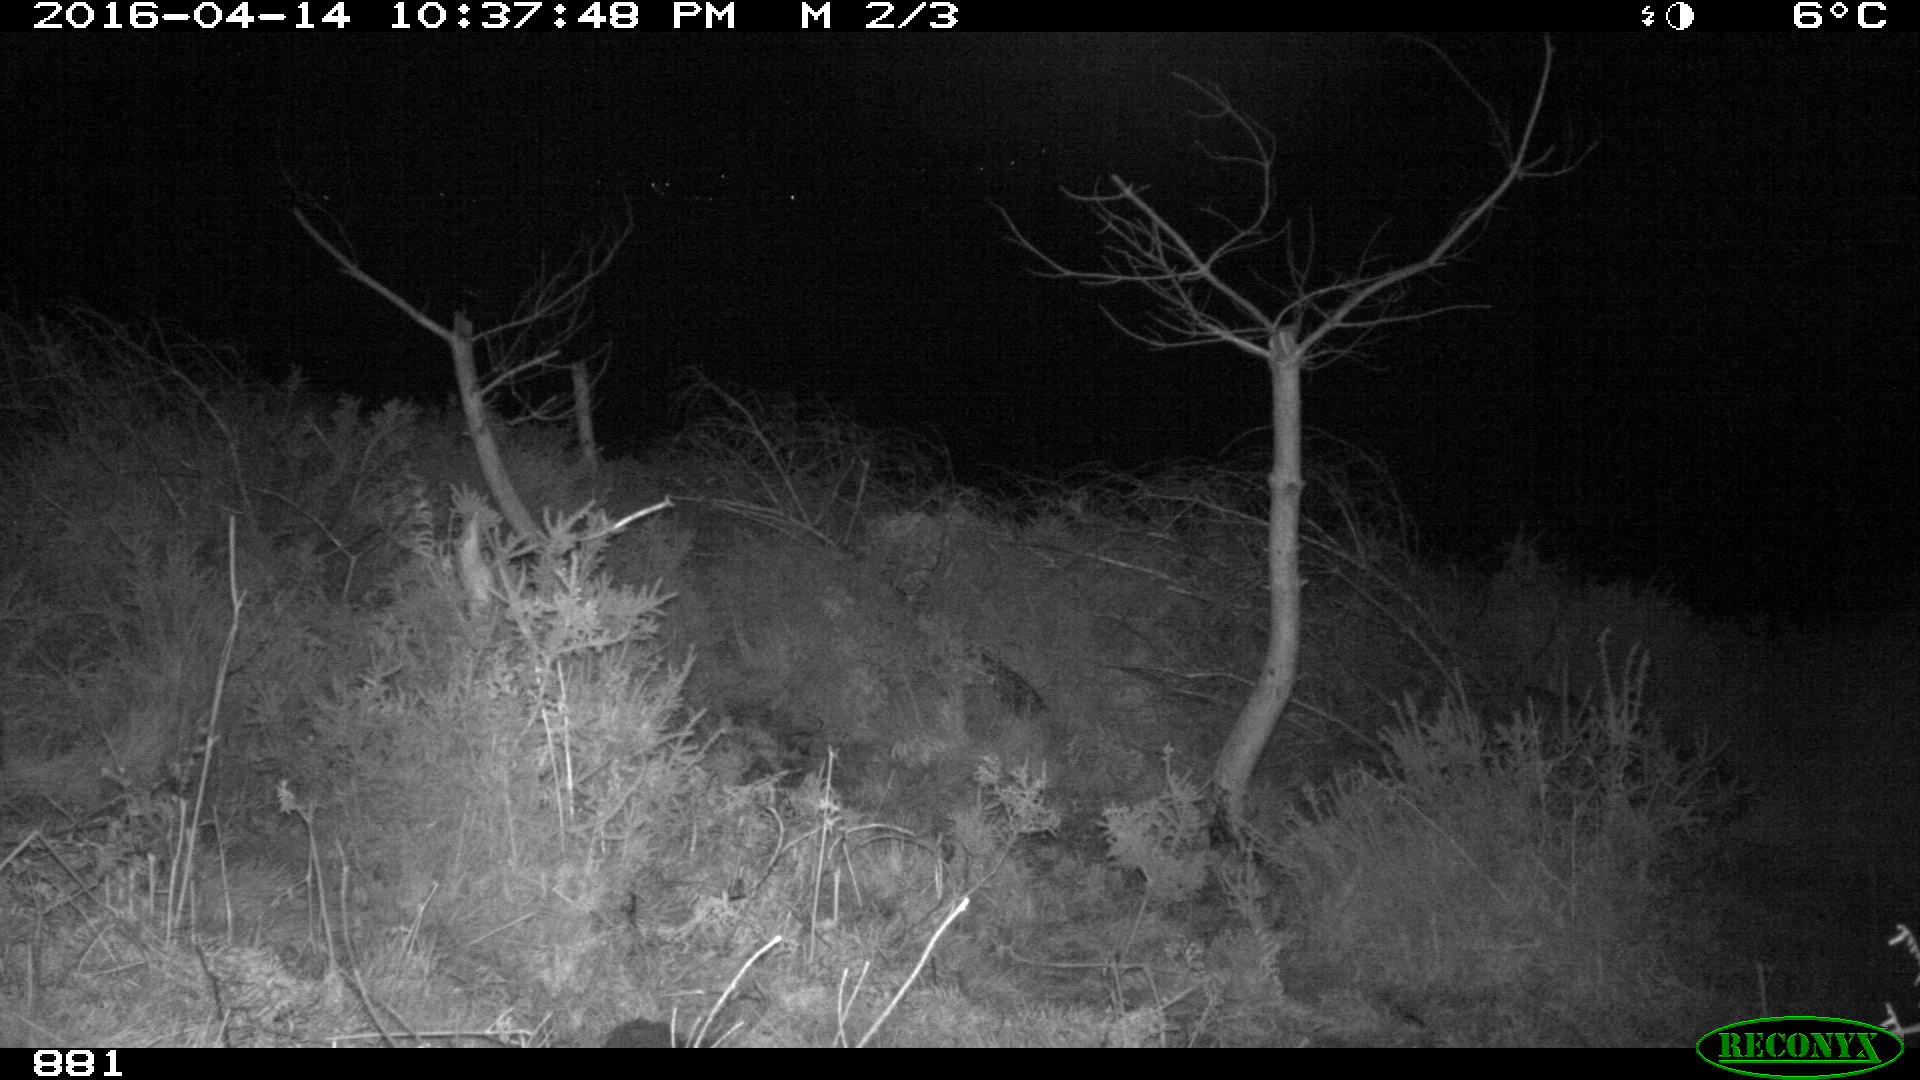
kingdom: Animalia
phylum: Chordata
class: Mammalia
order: Artiodactyla
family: Cervidae
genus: Capreolus
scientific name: Capreolus capreolus
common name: Western roe deer
